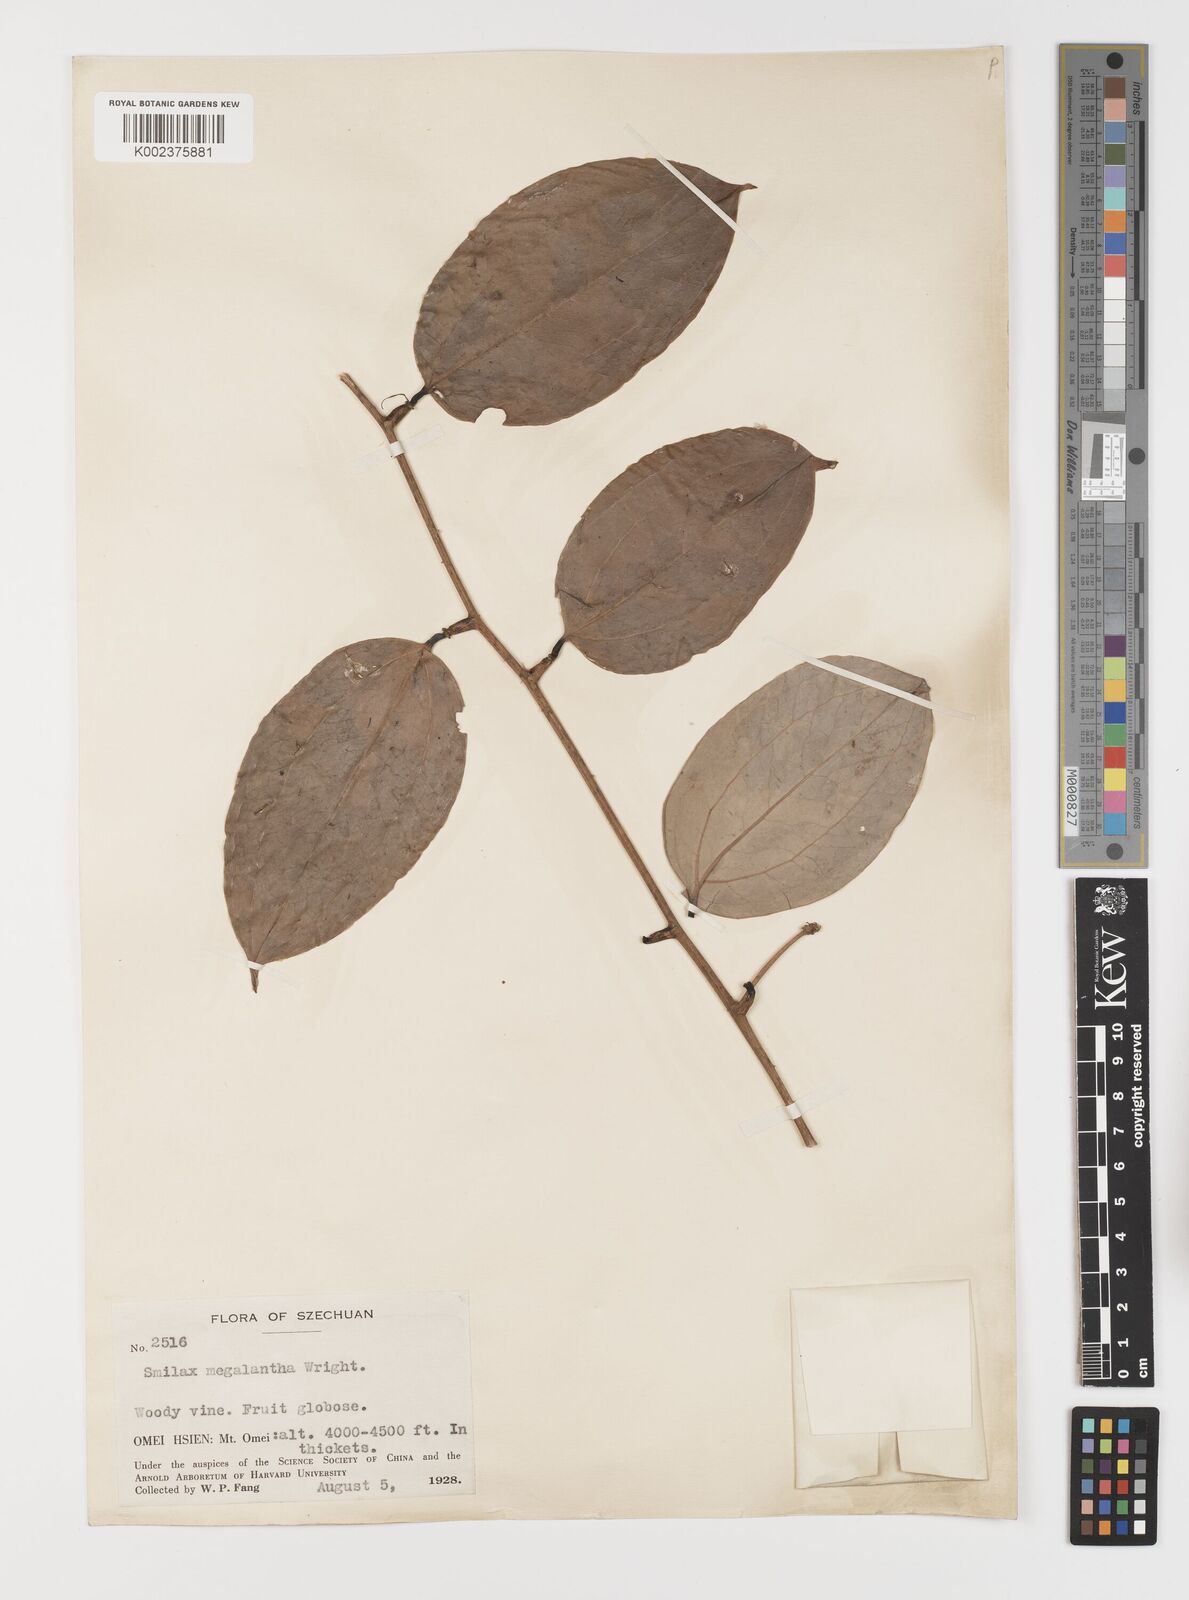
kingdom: Plantae
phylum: Tracheophyta
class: Liliopsida
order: Liliales
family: Smilacaceae
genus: Smilax
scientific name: Smilax megalantha
